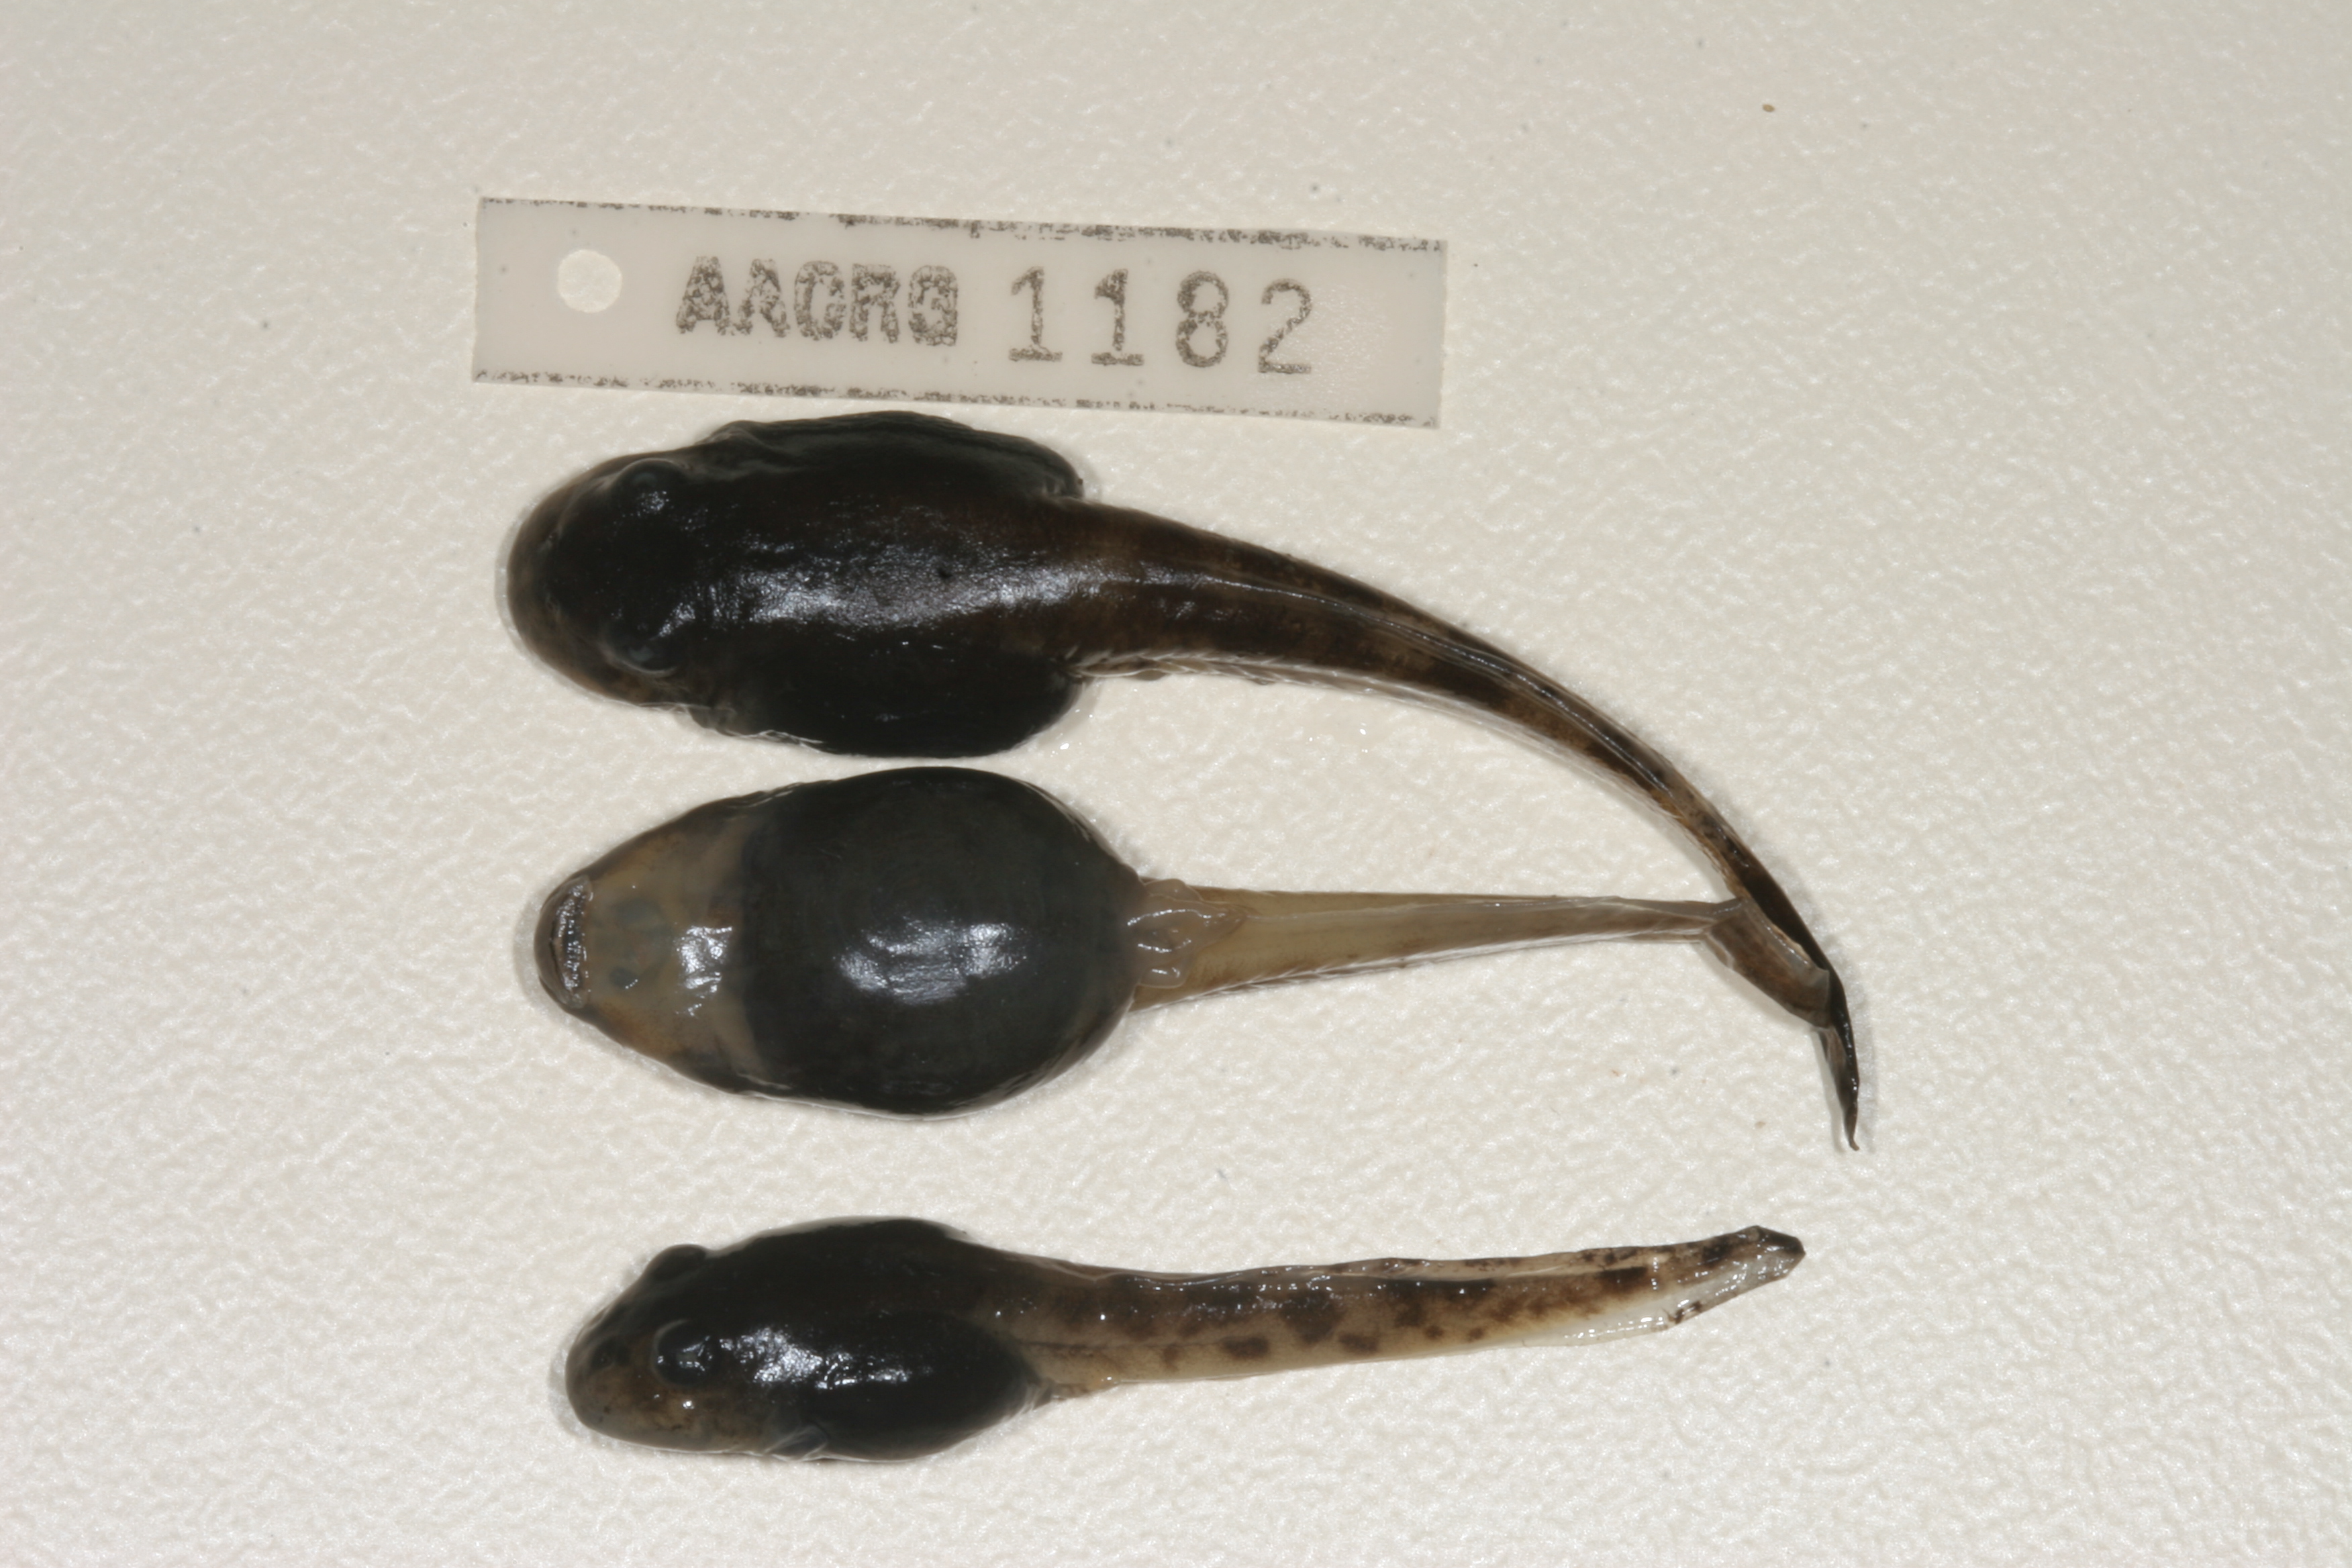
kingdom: Animalia
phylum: Chordata
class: Amphibia
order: Anura
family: Pyxicephalidae
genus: Amietia
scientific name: Amietia vertebralis
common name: Drakensberg stream frog
